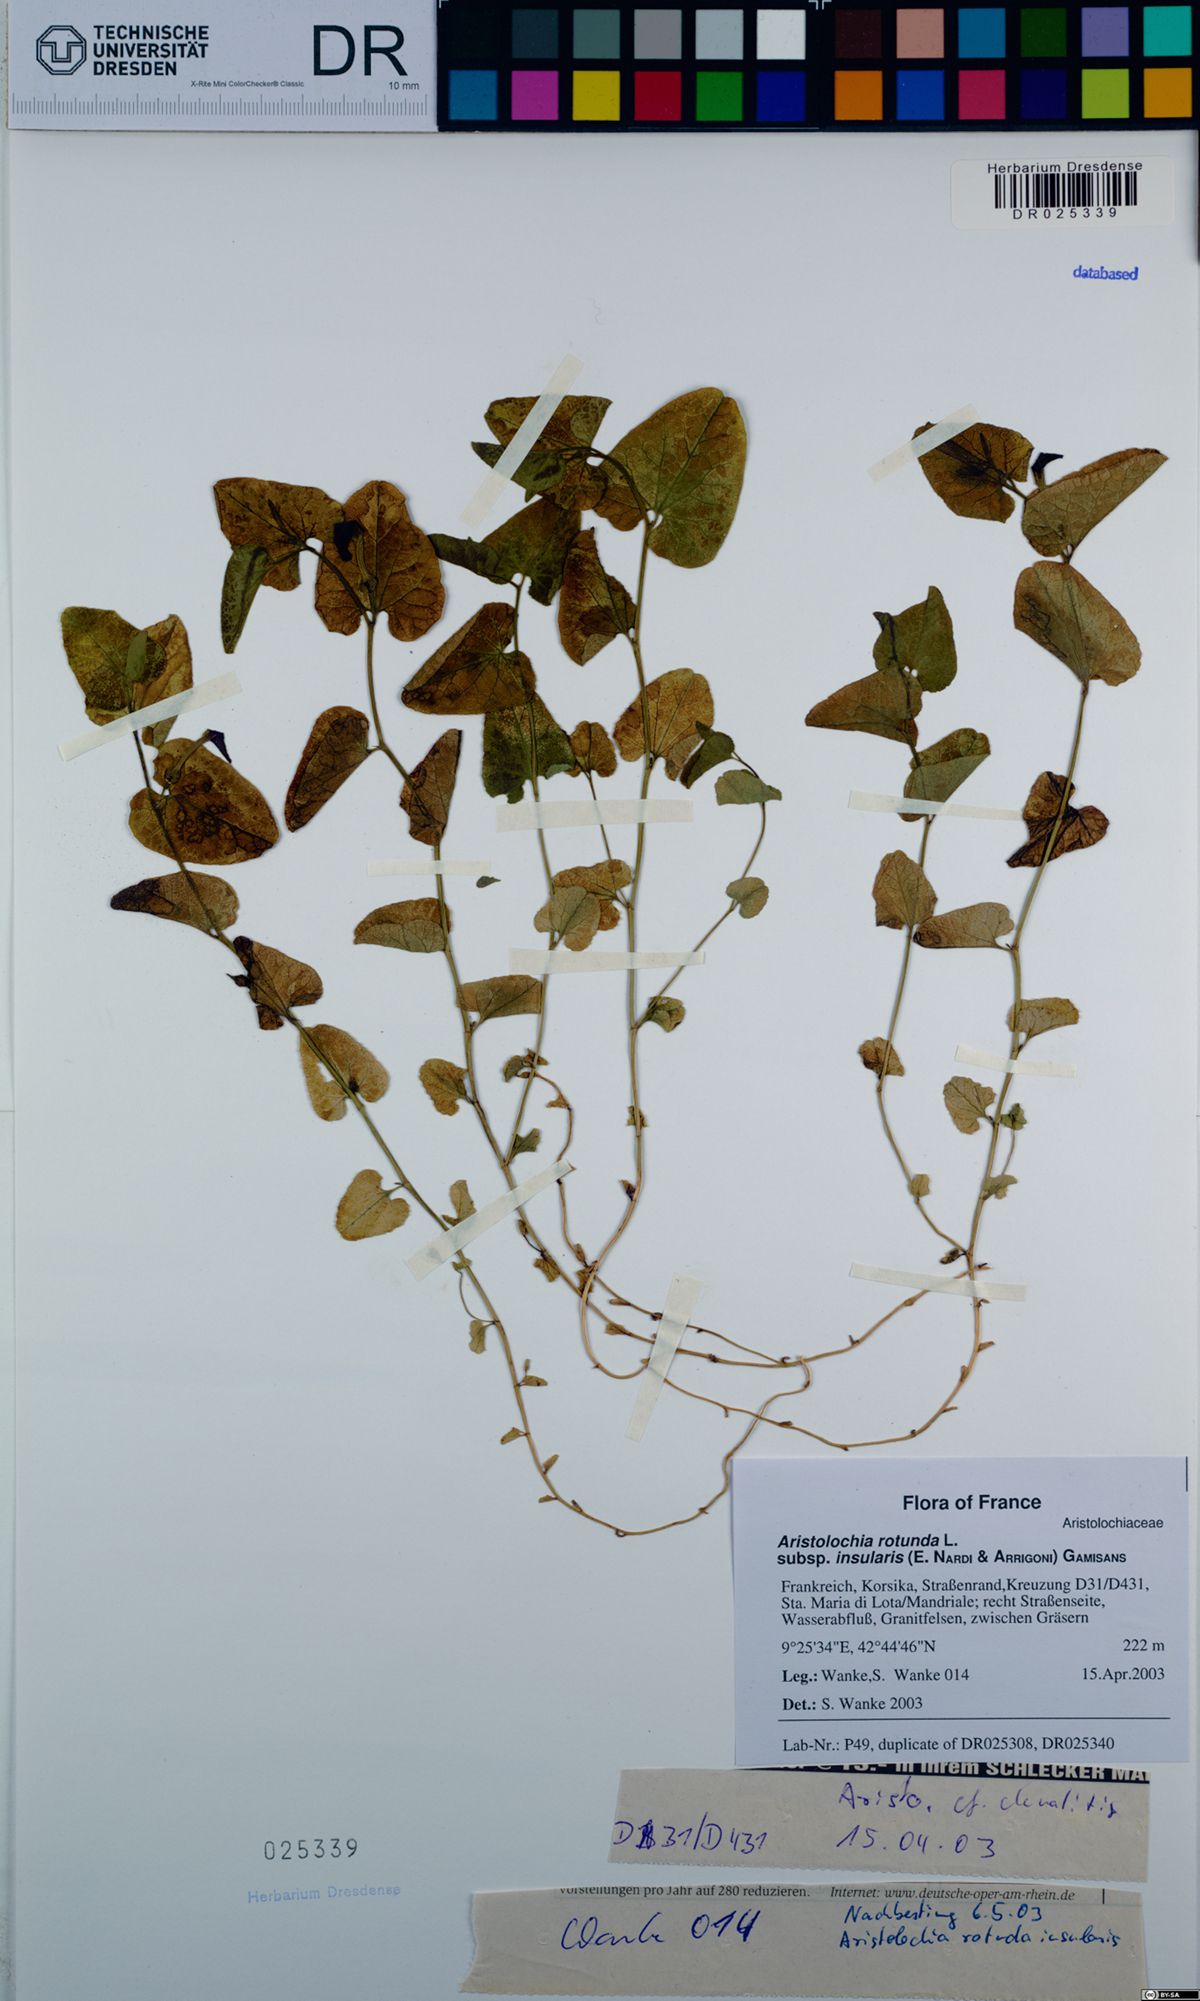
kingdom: Plantae
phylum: Tracheophyta
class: Magnoliopsida
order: Piperales
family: Aristolochiaceae
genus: Aristolochia
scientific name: Aristolochia rotunda
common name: Smearwort
